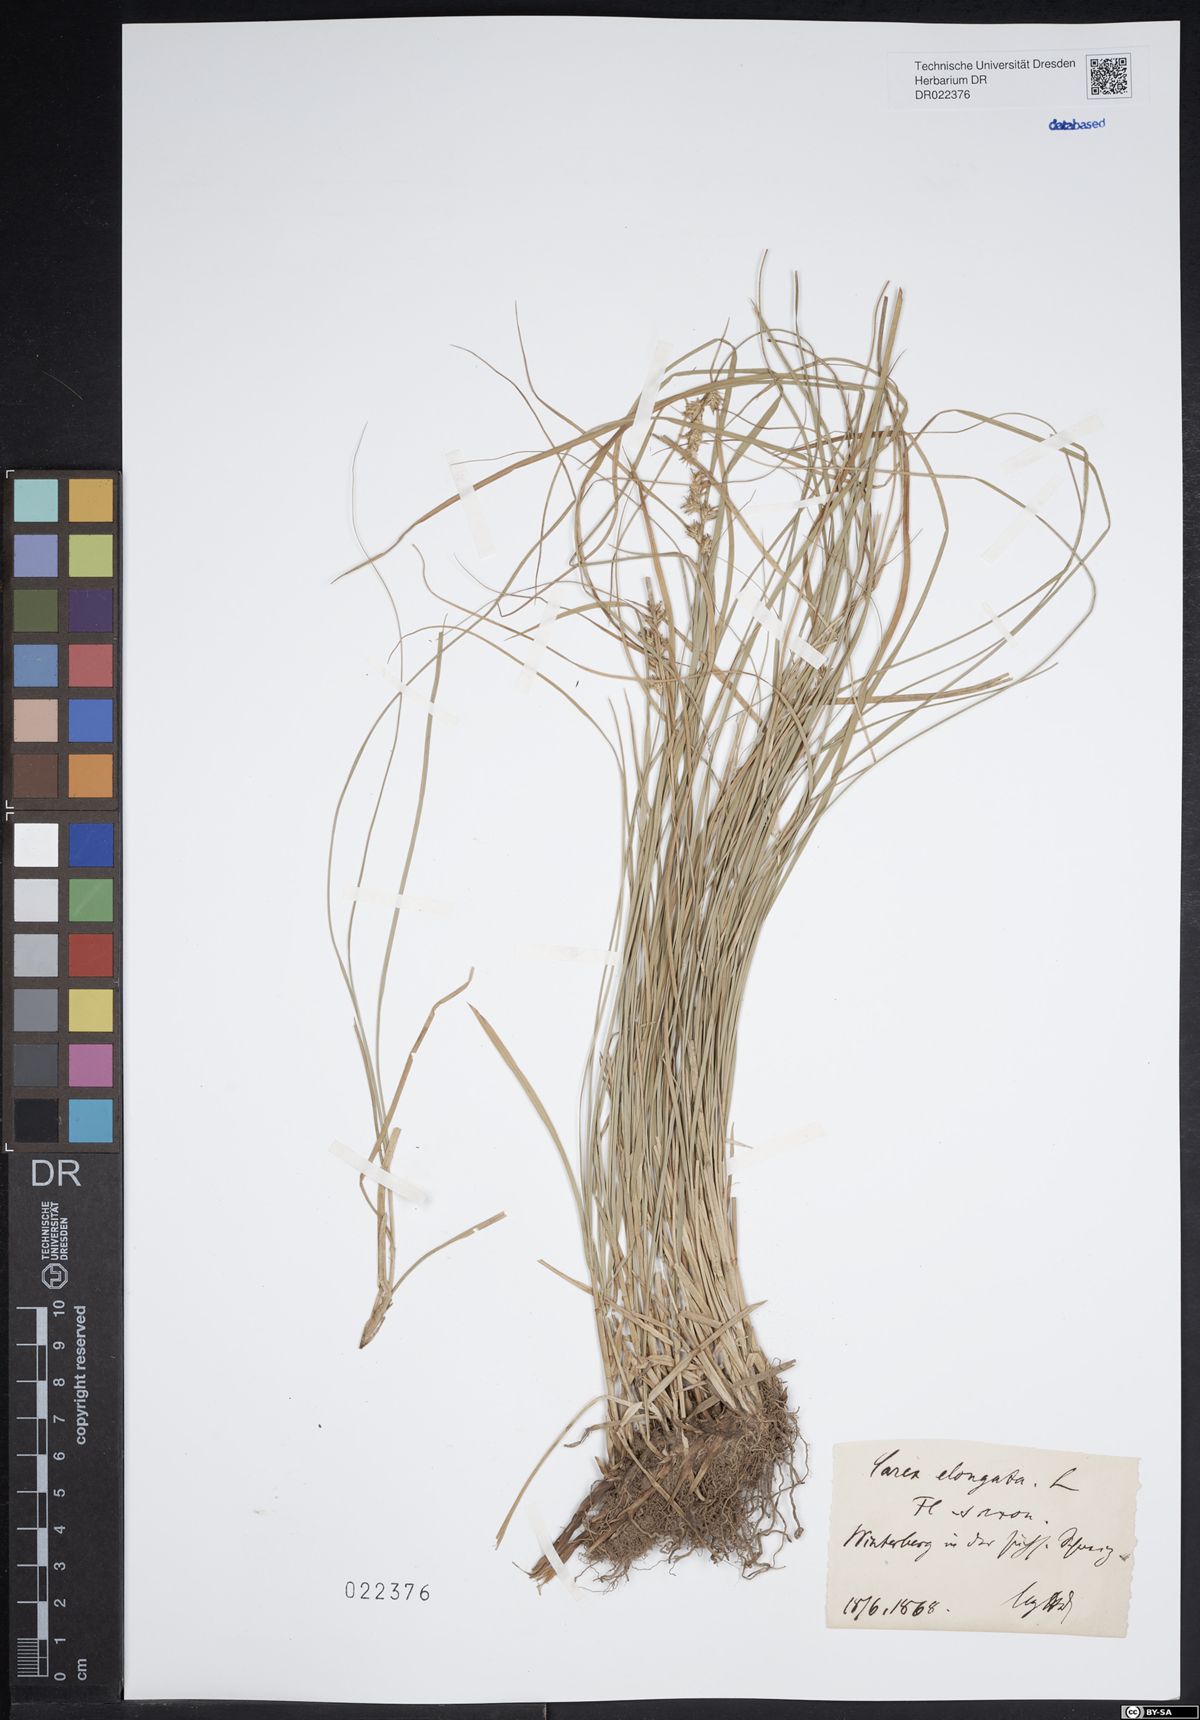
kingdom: Plantae
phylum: Tracheophyta
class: Liliopsida
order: Poales
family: Cyperaceae
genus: Carex
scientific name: Carex elongata
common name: Elongated sedge
